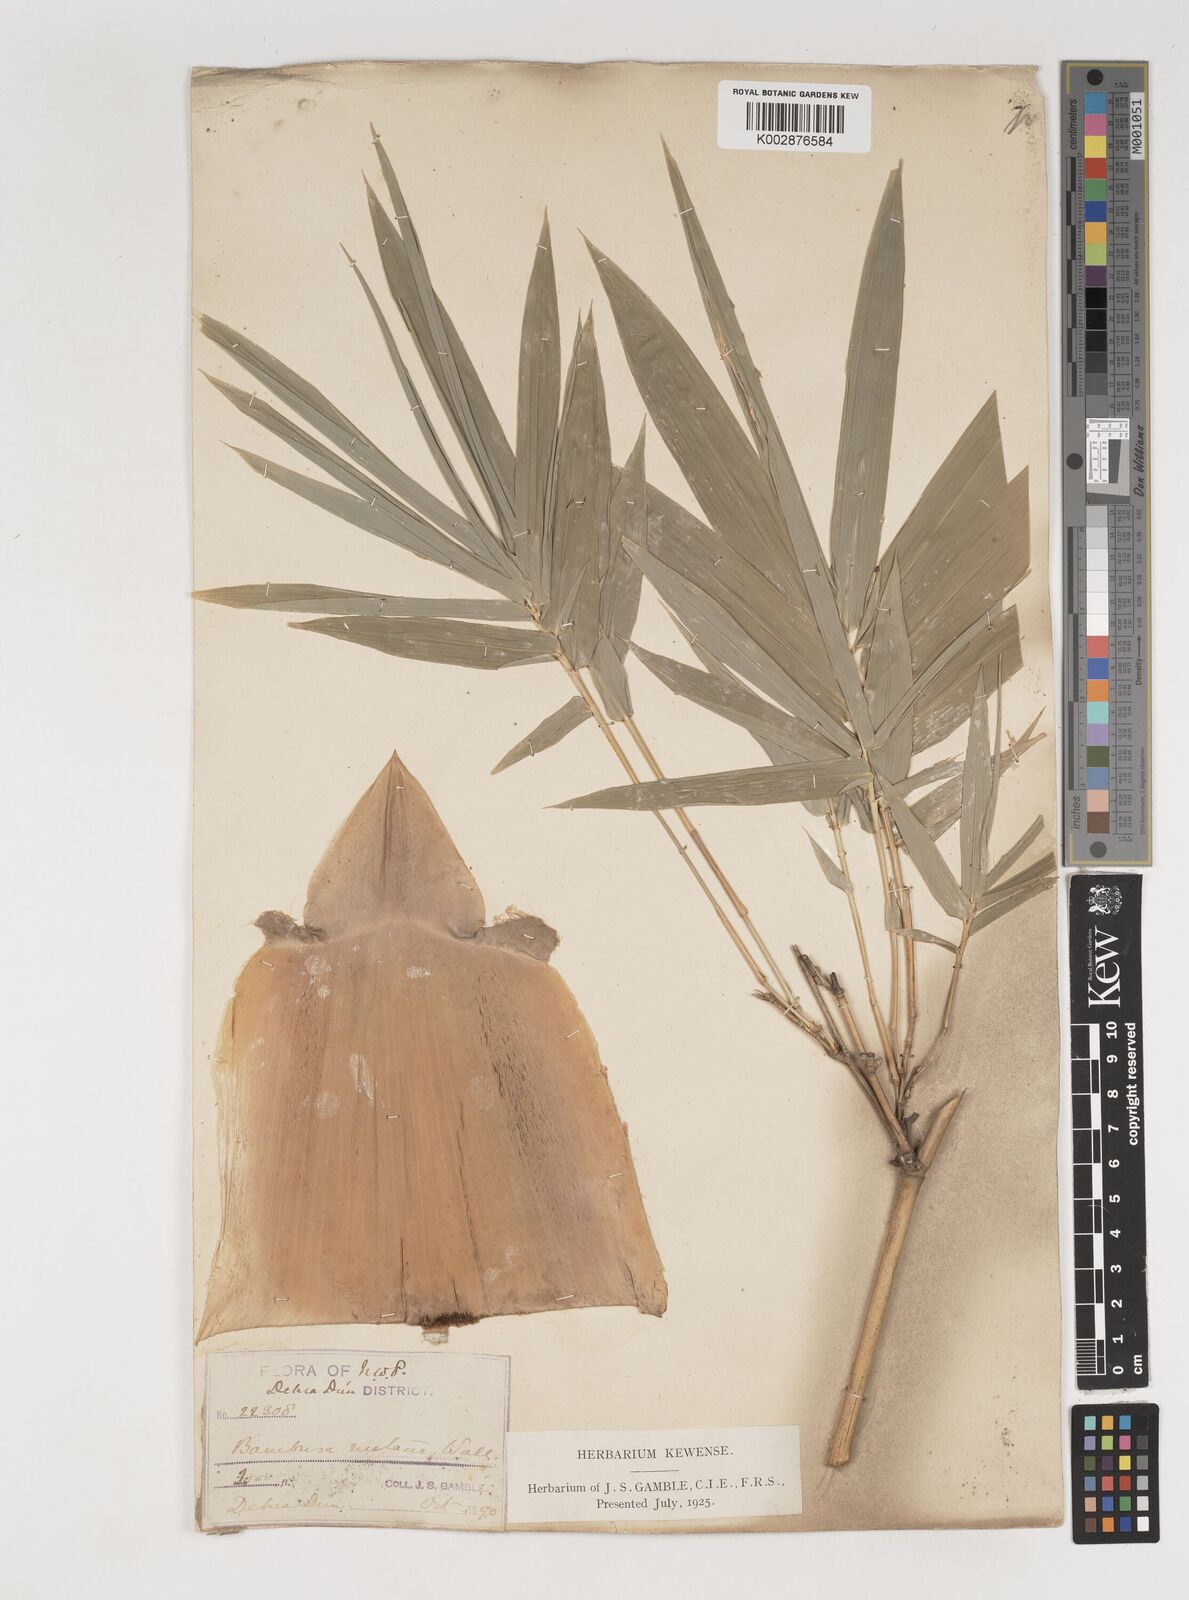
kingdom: Plantae
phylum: Tracheophyta
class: Liliopsida
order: Poales
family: Poaceae
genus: Bambusa
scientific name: Bambusa nutans
